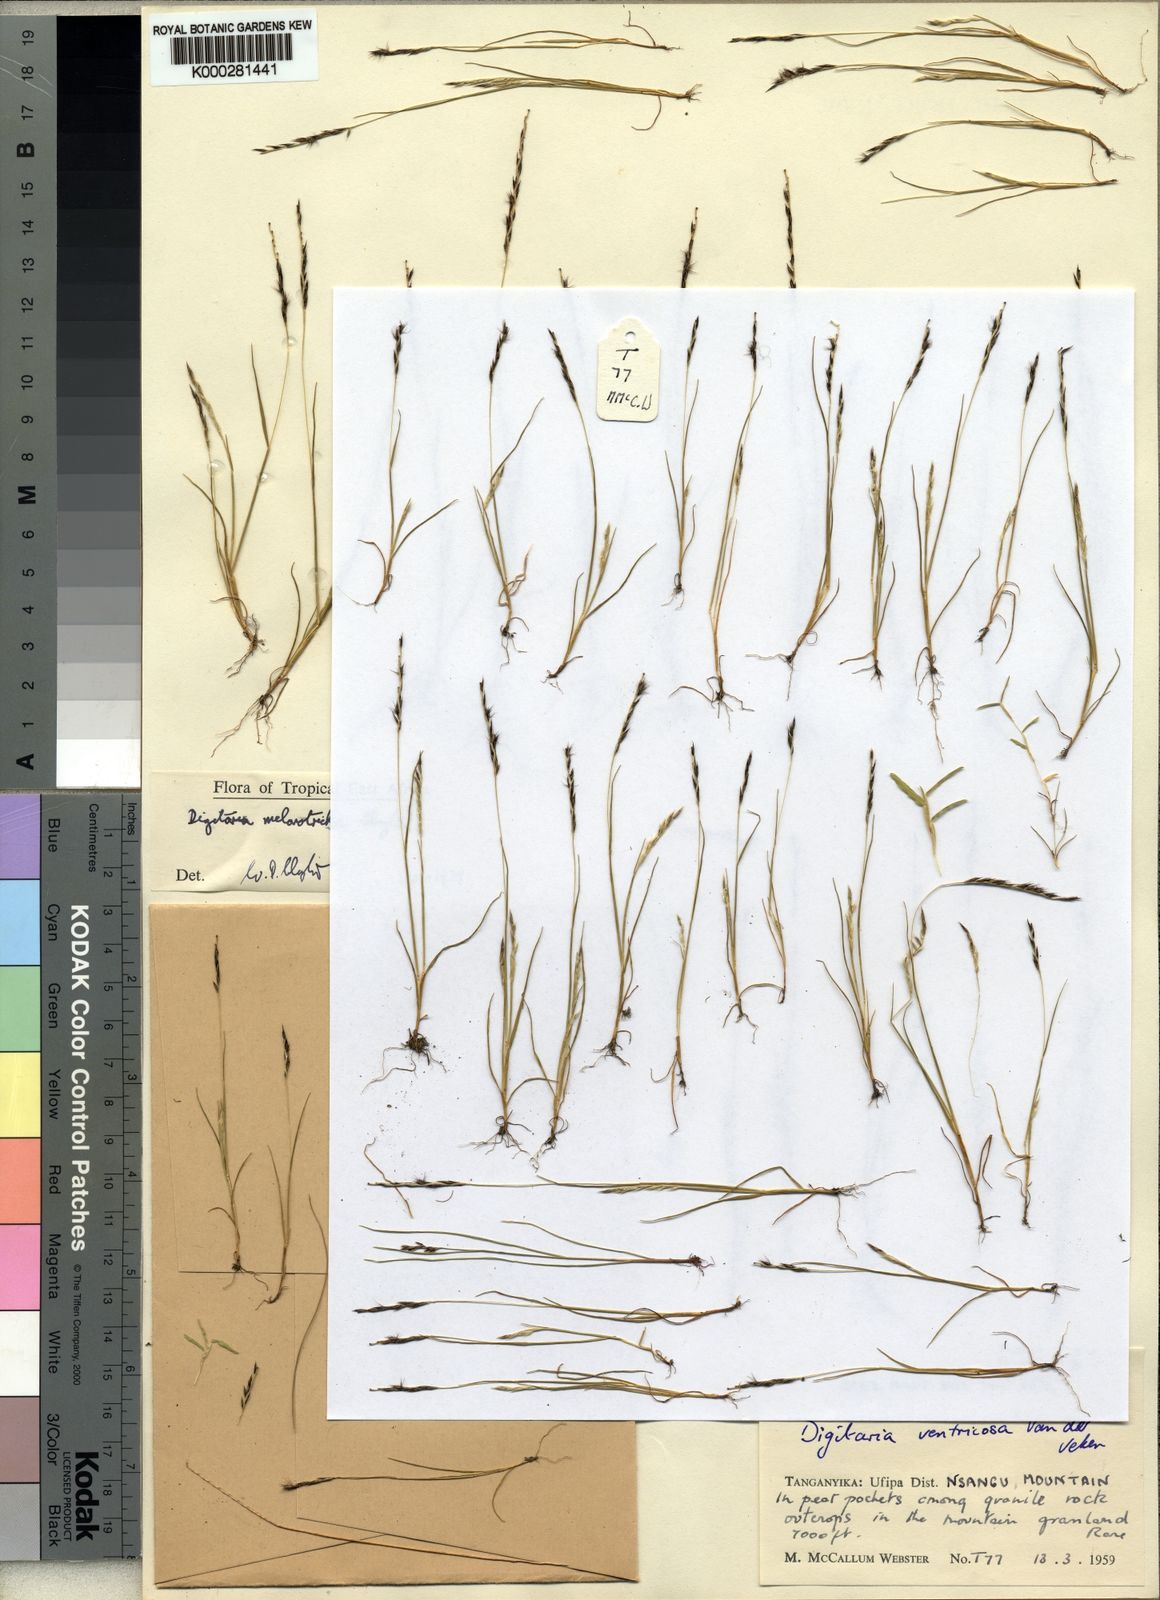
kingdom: Plantae
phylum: Tracheophyta
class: Liliopsida
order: Poales
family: Poaceae
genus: Digitaria
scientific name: Digitaria melanotricha
